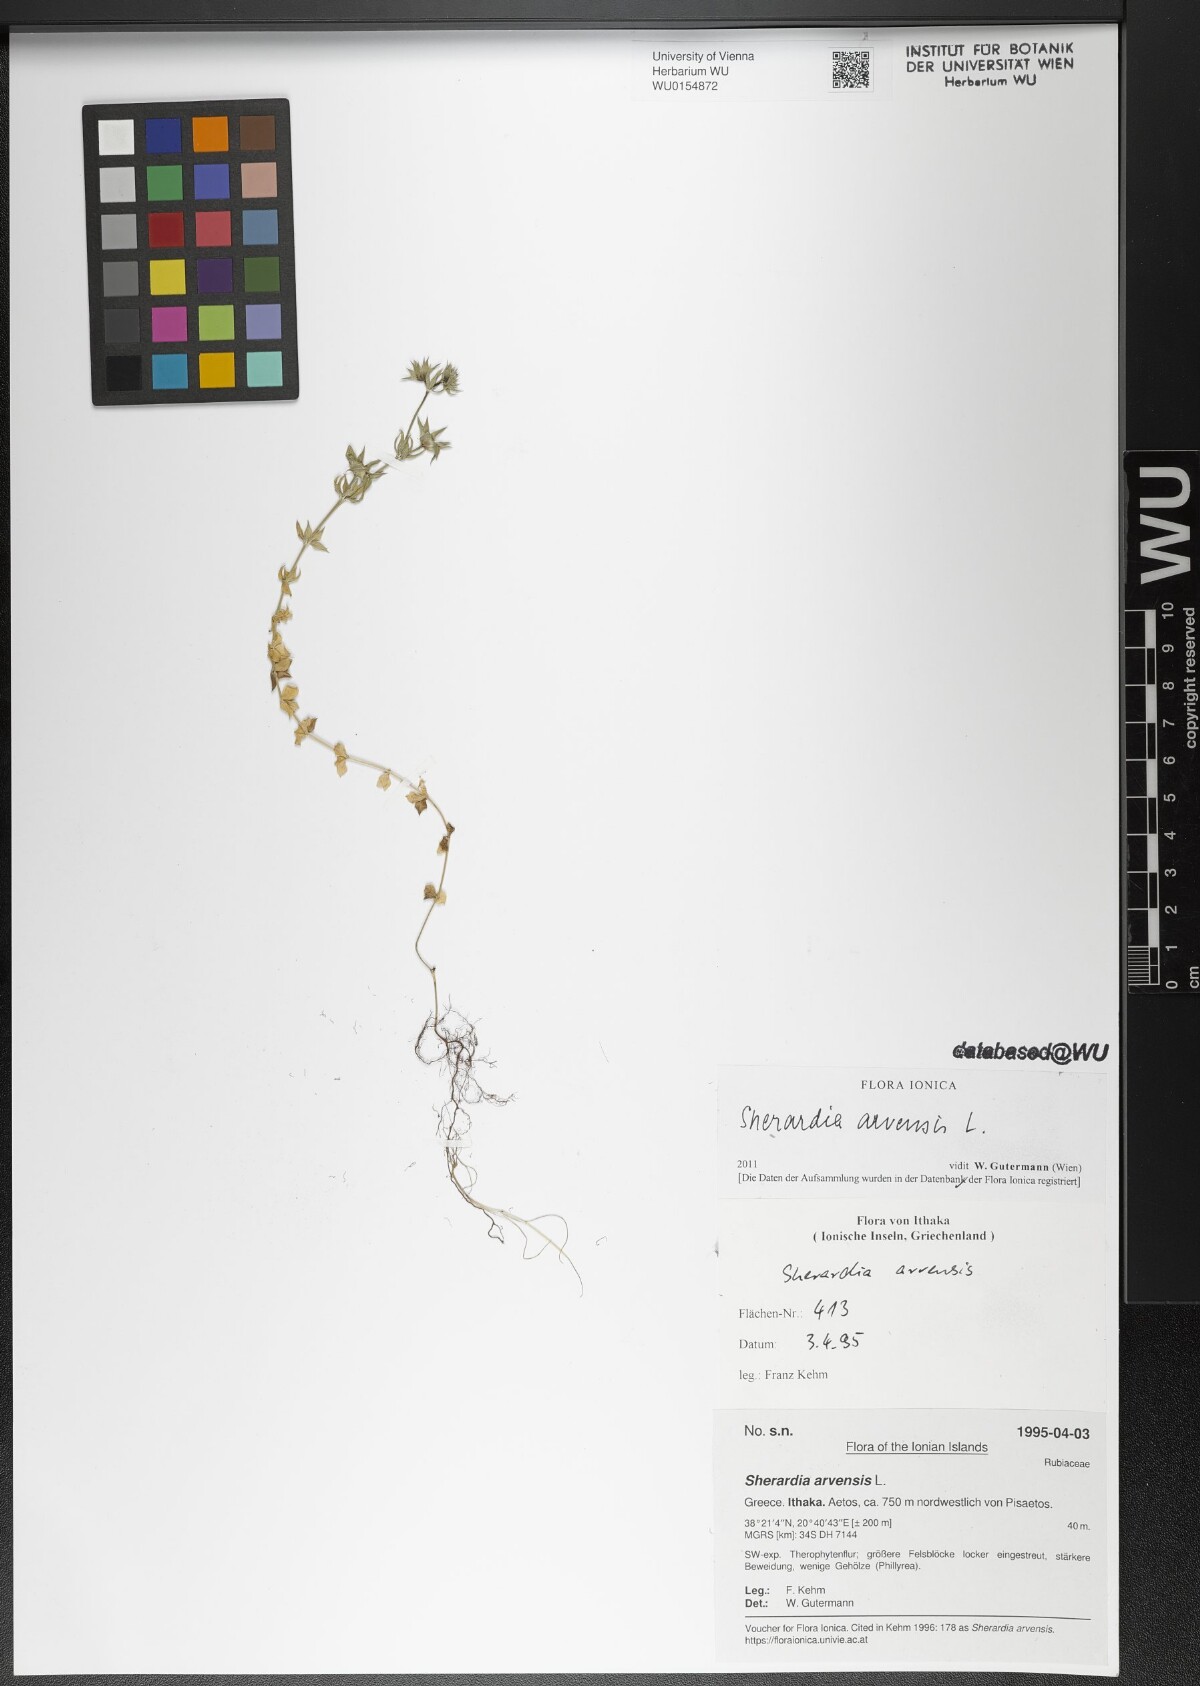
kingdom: Plantae
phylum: Tracheophyta
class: Magnoliopsida
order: Gentianales
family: Rubiaceae
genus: Sherardia
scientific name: Sherardia arvensis
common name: Field madder
